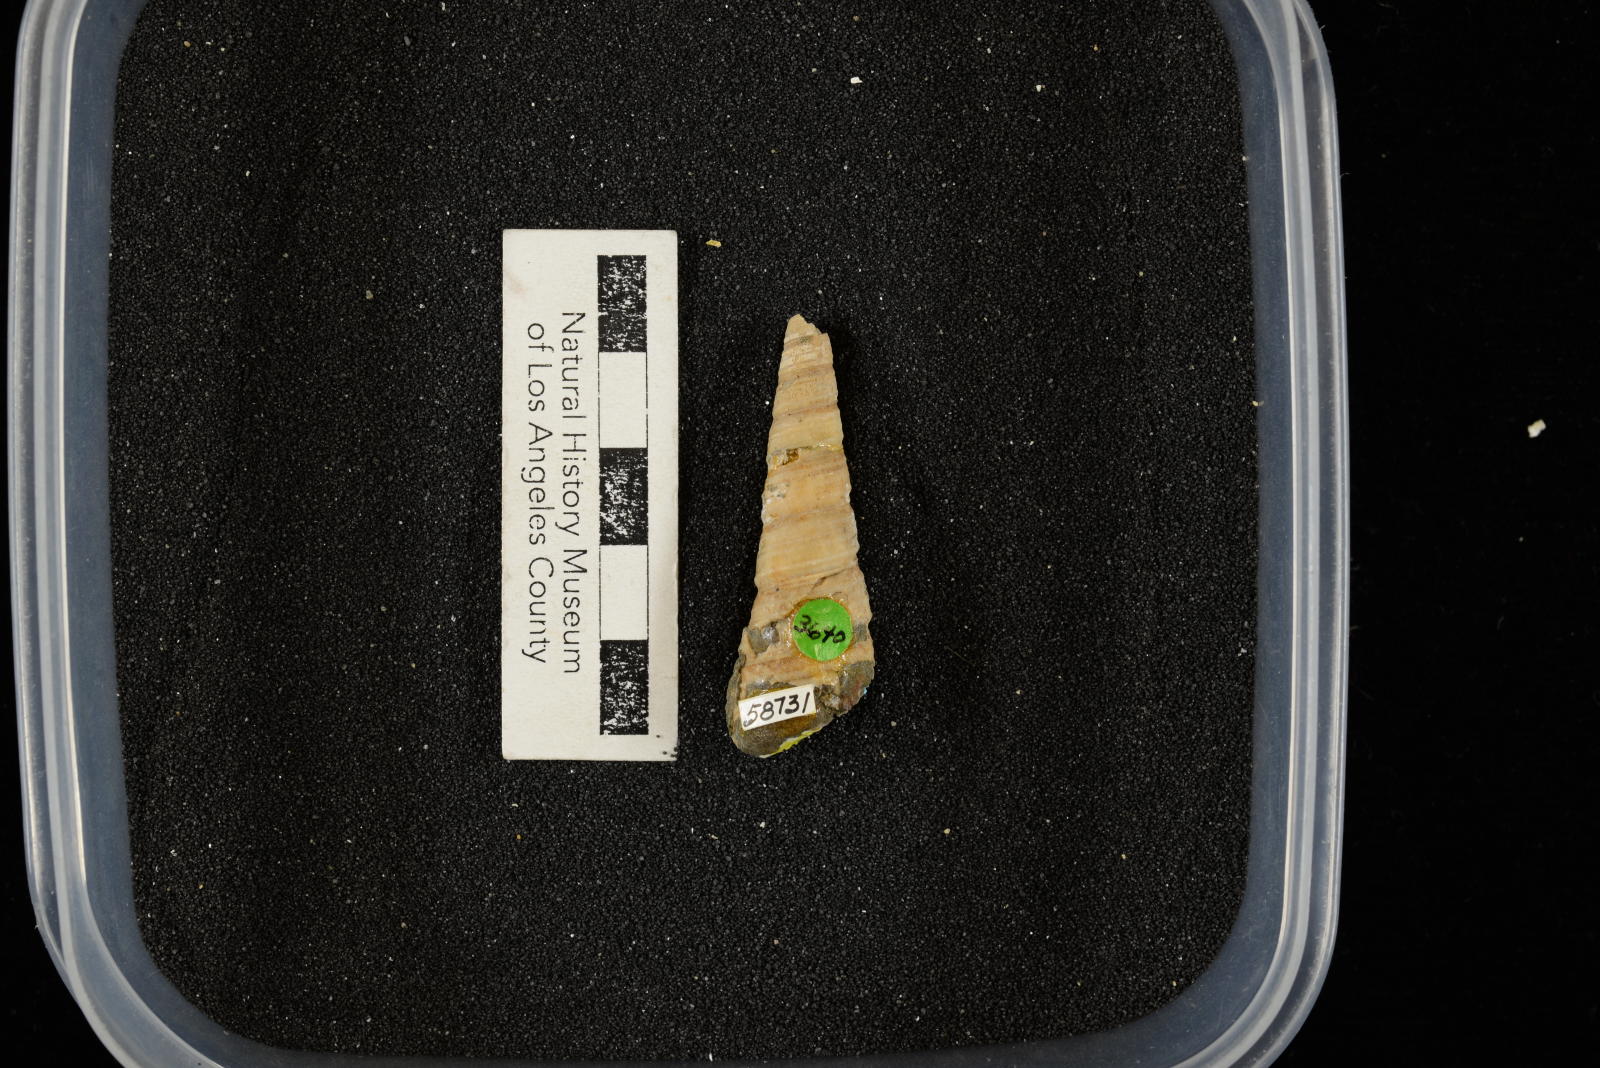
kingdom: Animalia
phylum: Mollusca
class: Gastropoda
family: Turritellidae
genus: Turritella
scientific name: Turritella chicoensis
